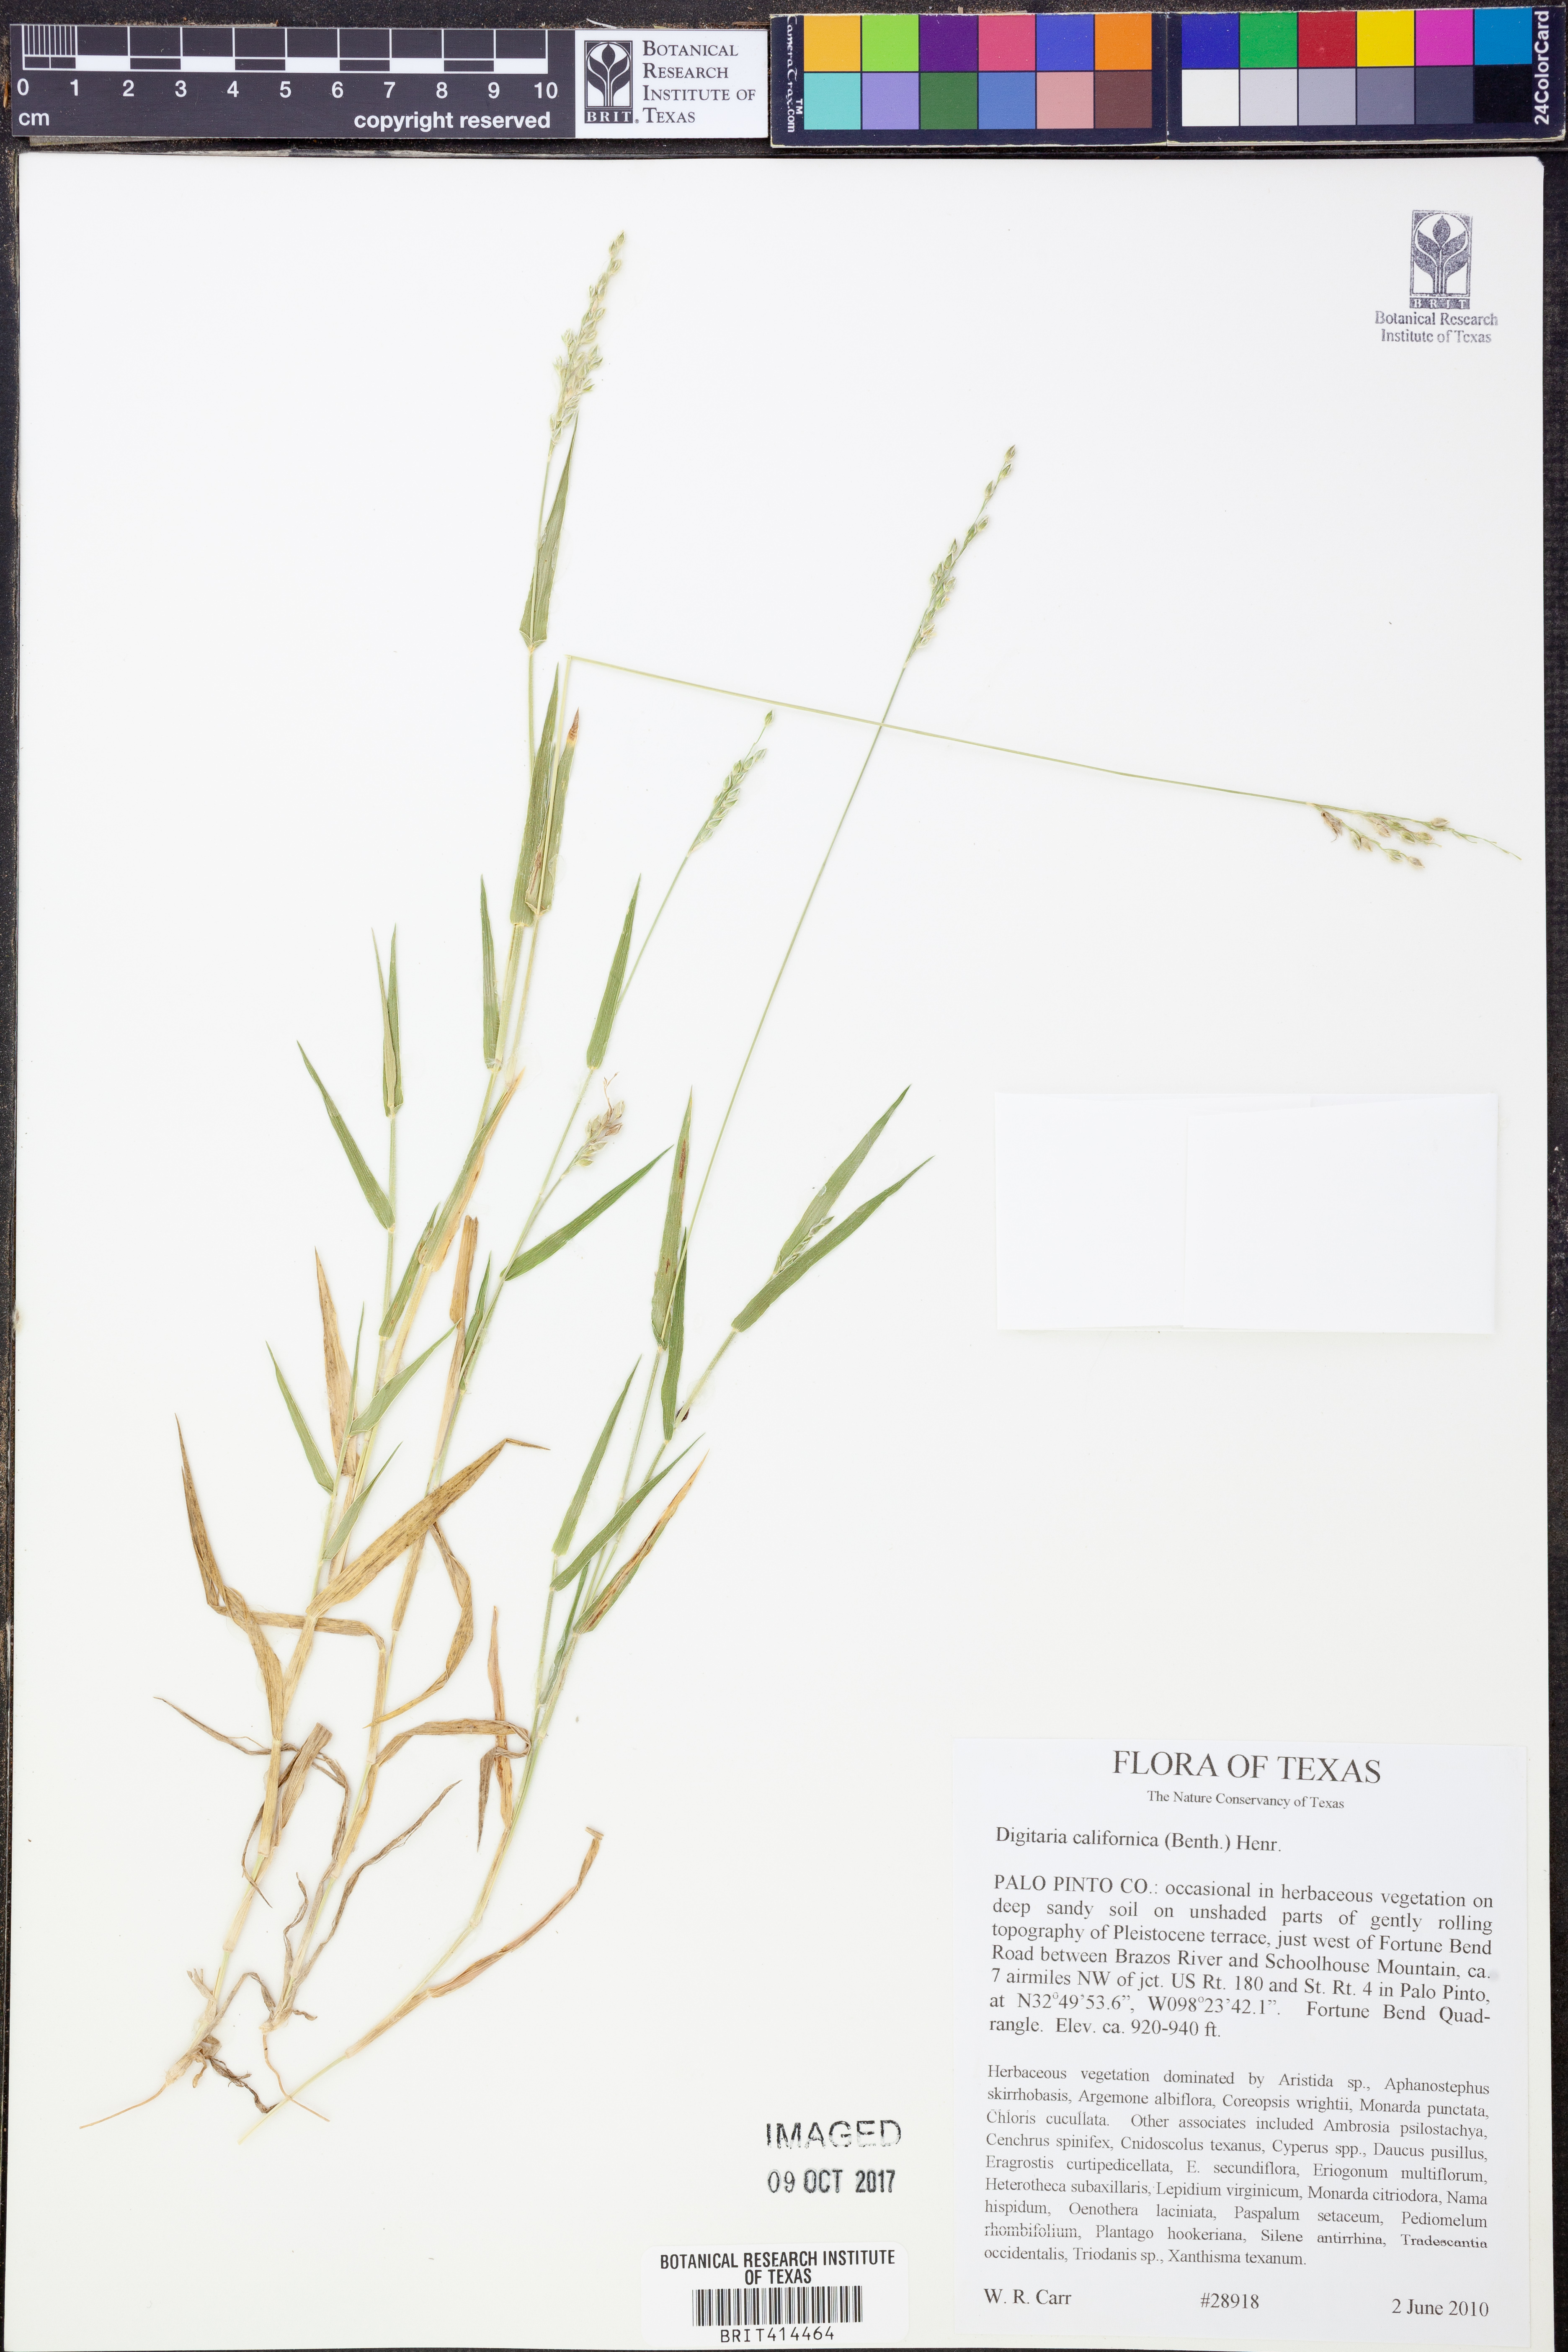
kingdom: Plantae
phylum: Tracheophyta
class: Liliopsida
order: Poales
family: Poaceae
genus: Digitaria
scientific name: Digitaria californica
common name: Arizona cottontop
